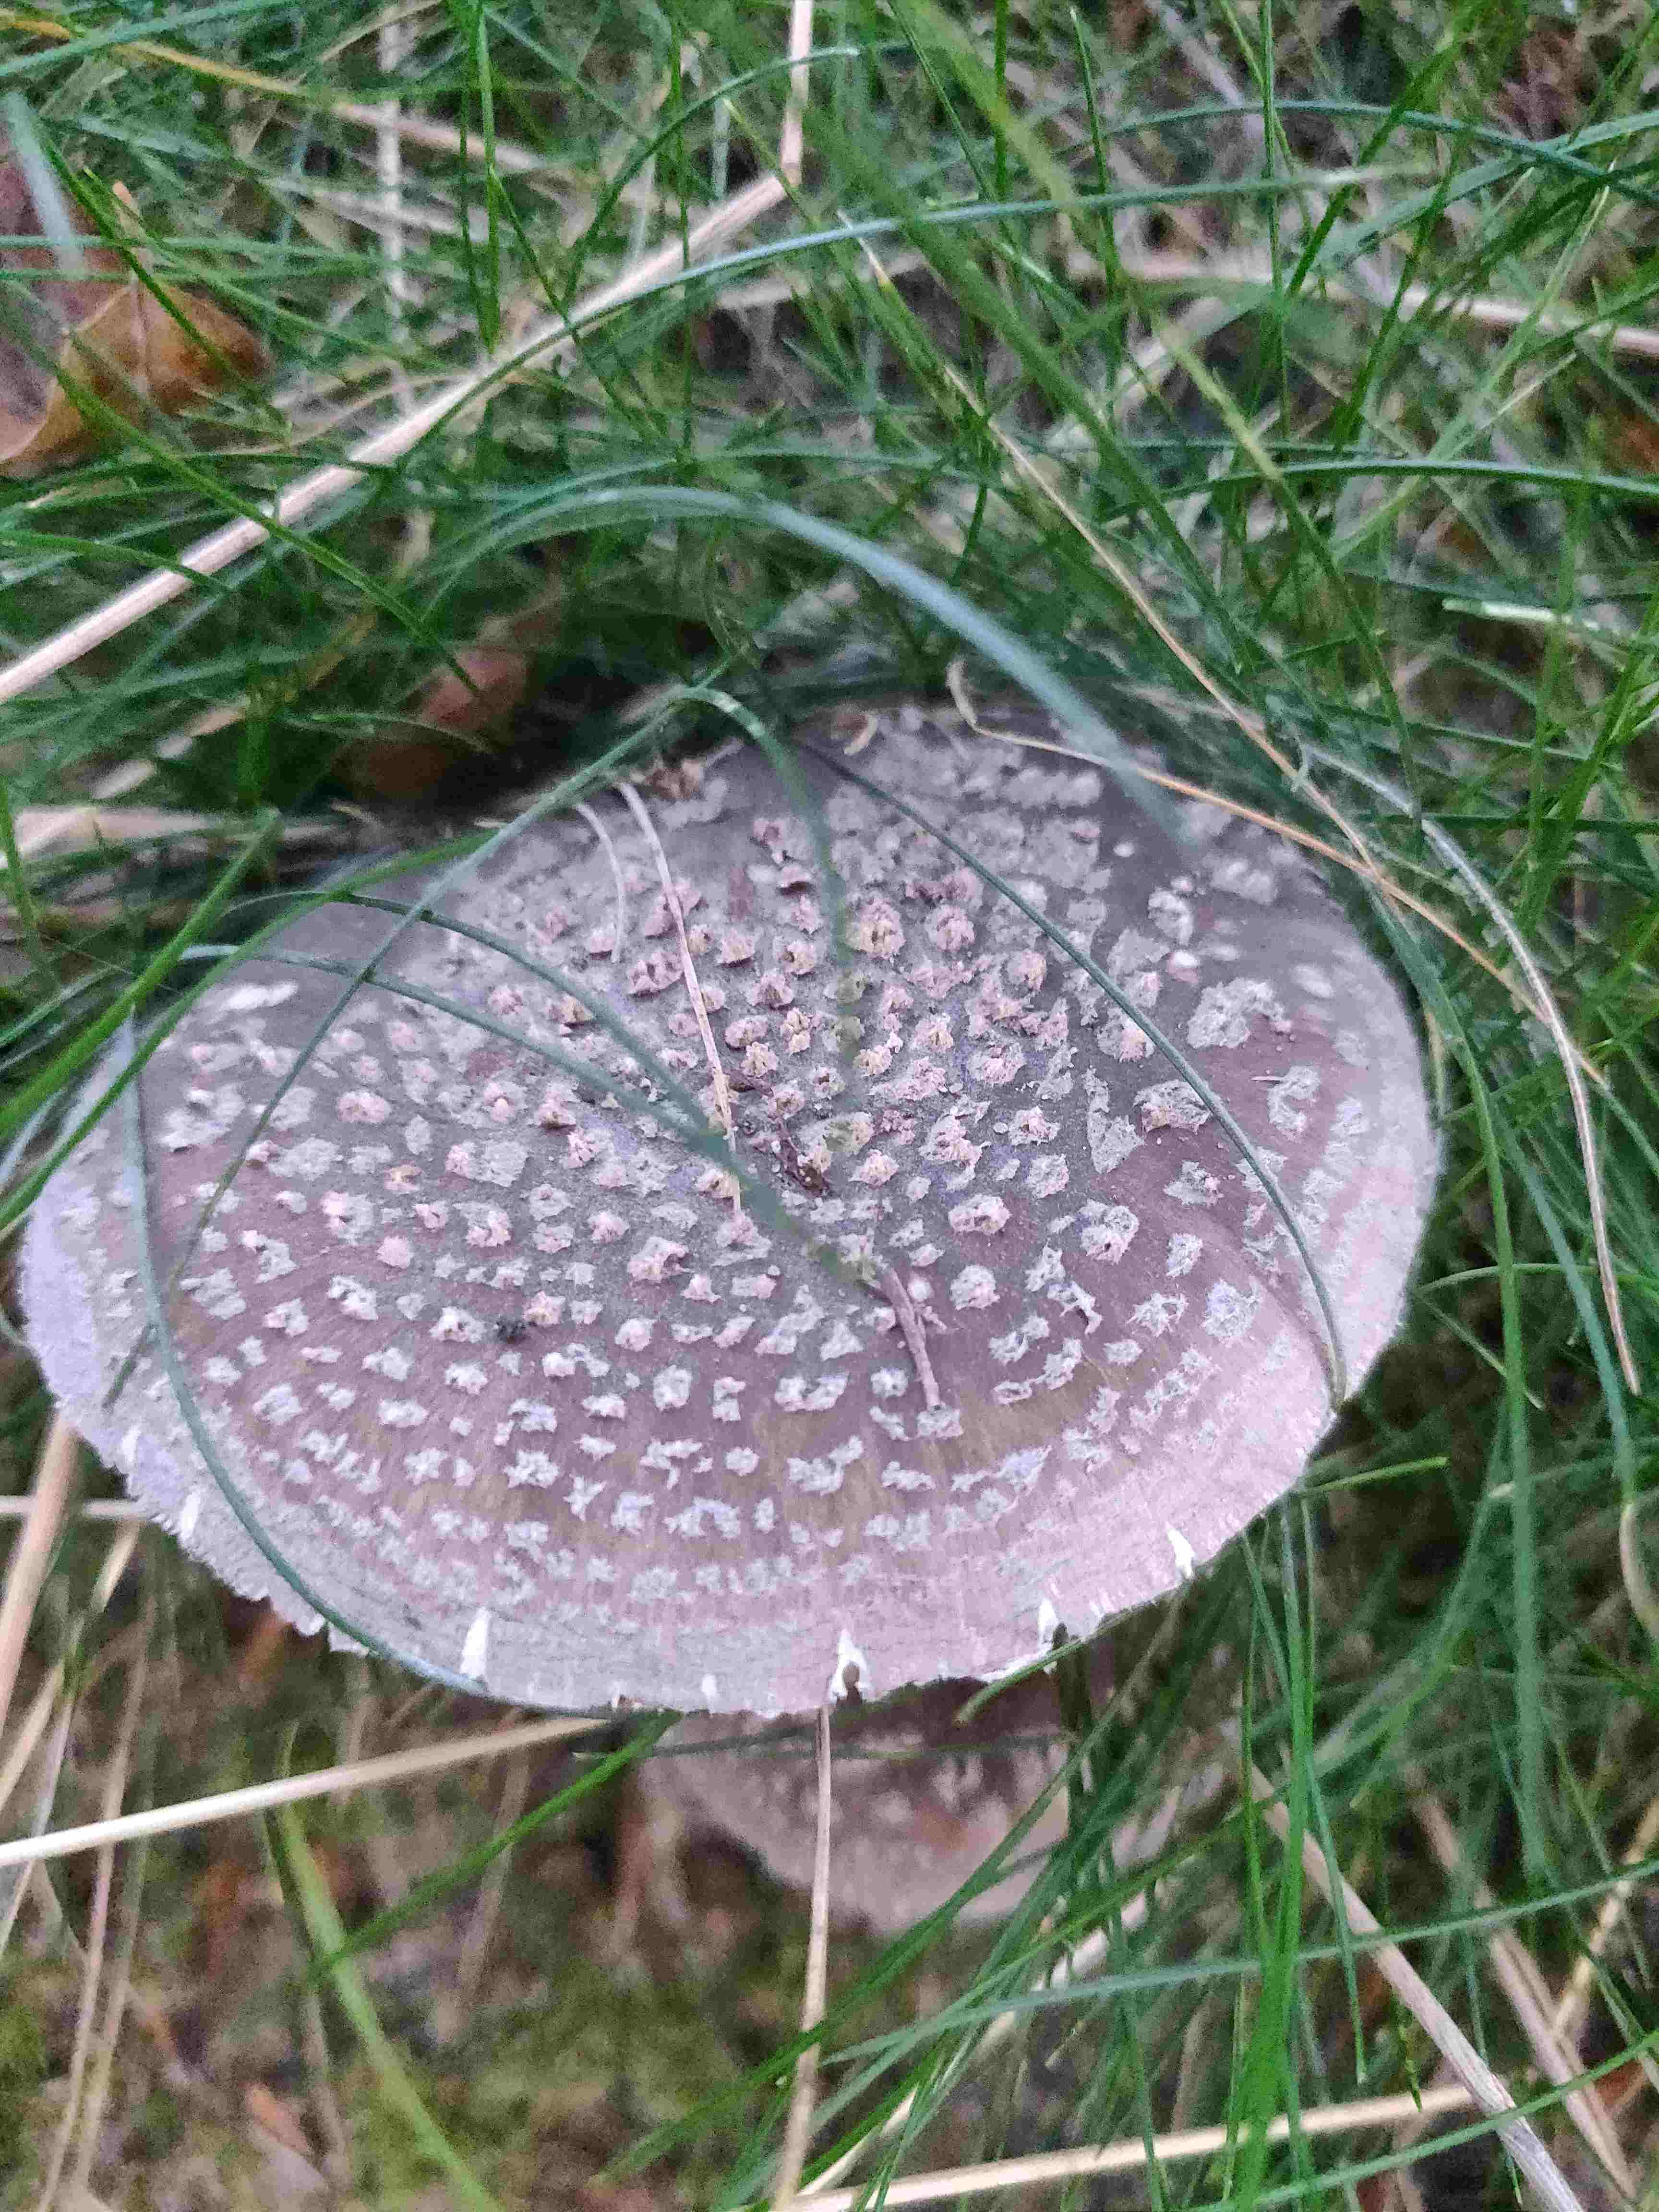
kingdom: Fungi
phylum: Basidiomycota
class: Agaricomycetes
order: Agaricales
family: Amanitaceae
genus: Amanita
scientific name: Amanita
